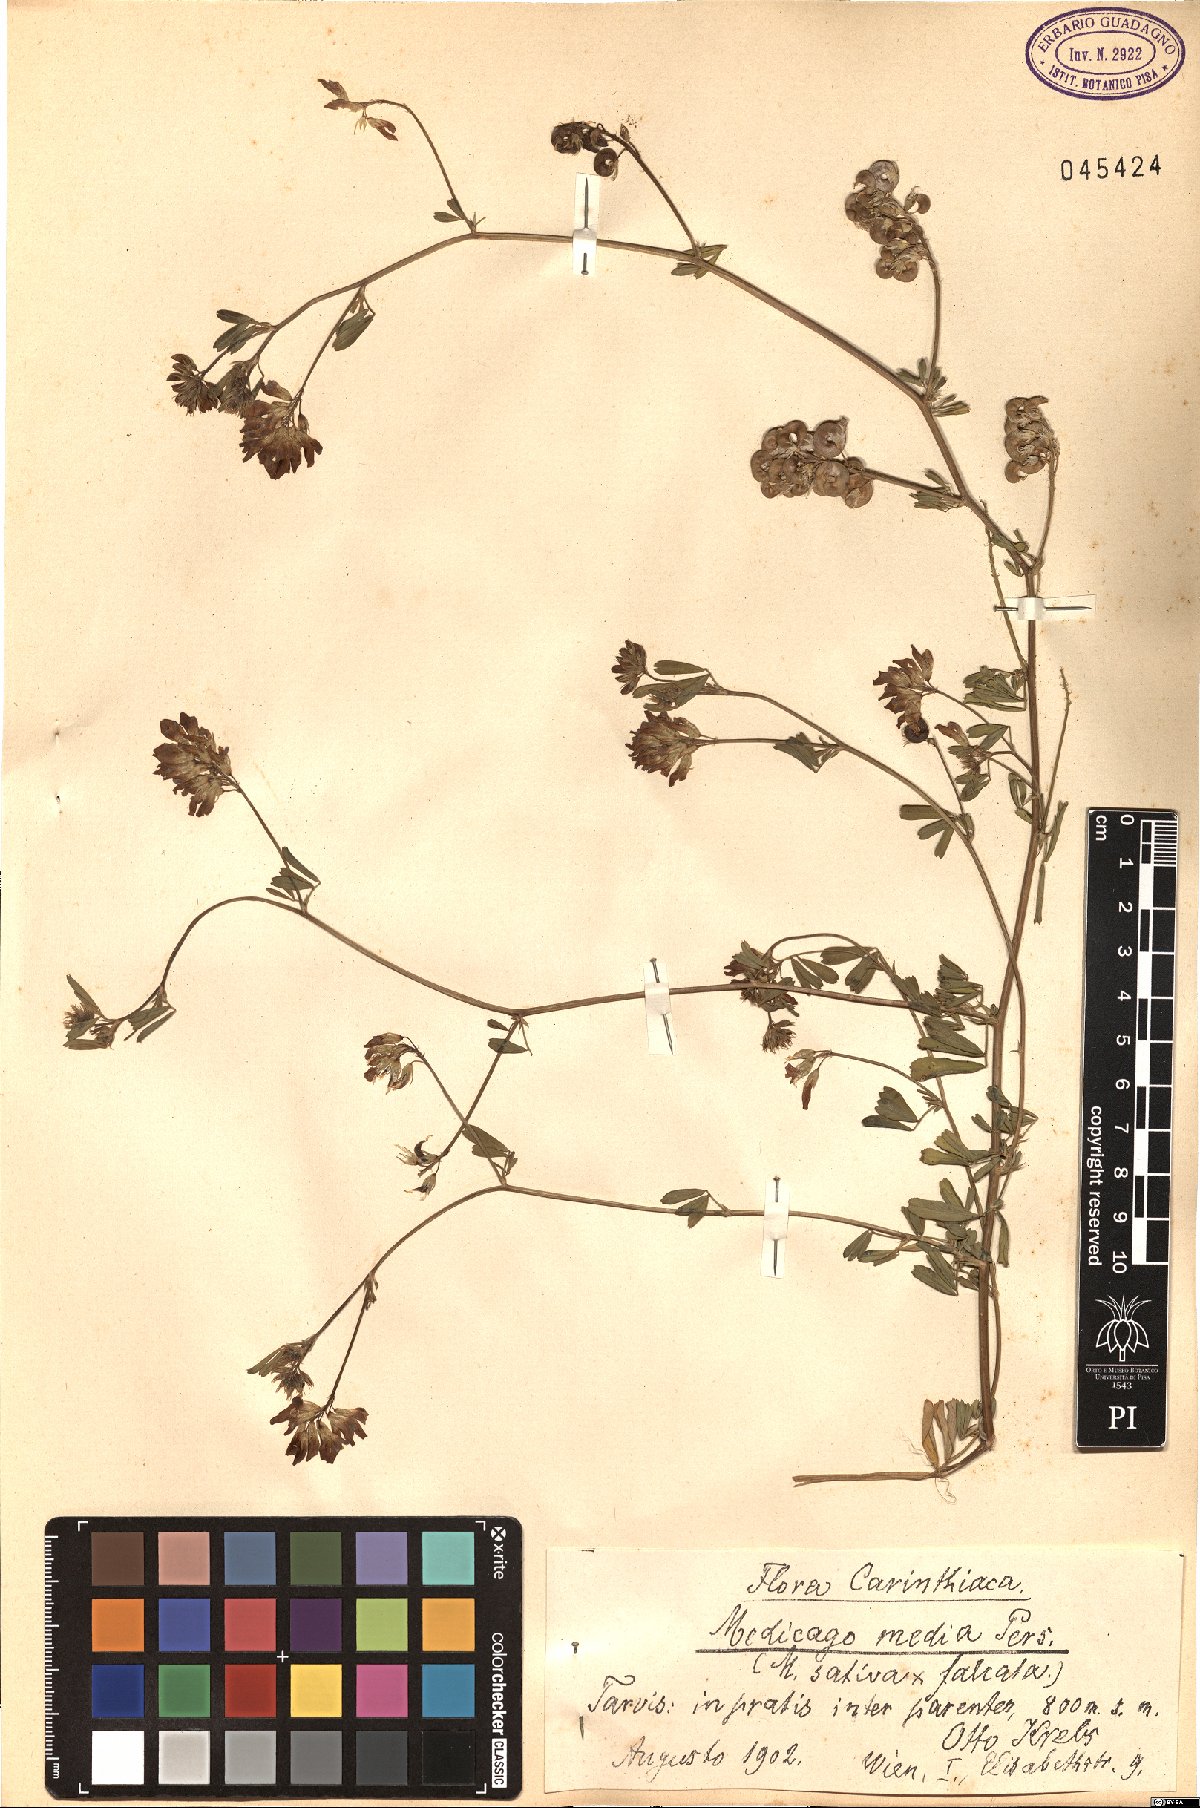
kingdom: Plantae
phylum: Tracheophyta
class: Magnoliopsida
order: Fabales
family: Fabaceae
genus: Medicago
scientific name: Medicago varia
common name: Sand lucerne
